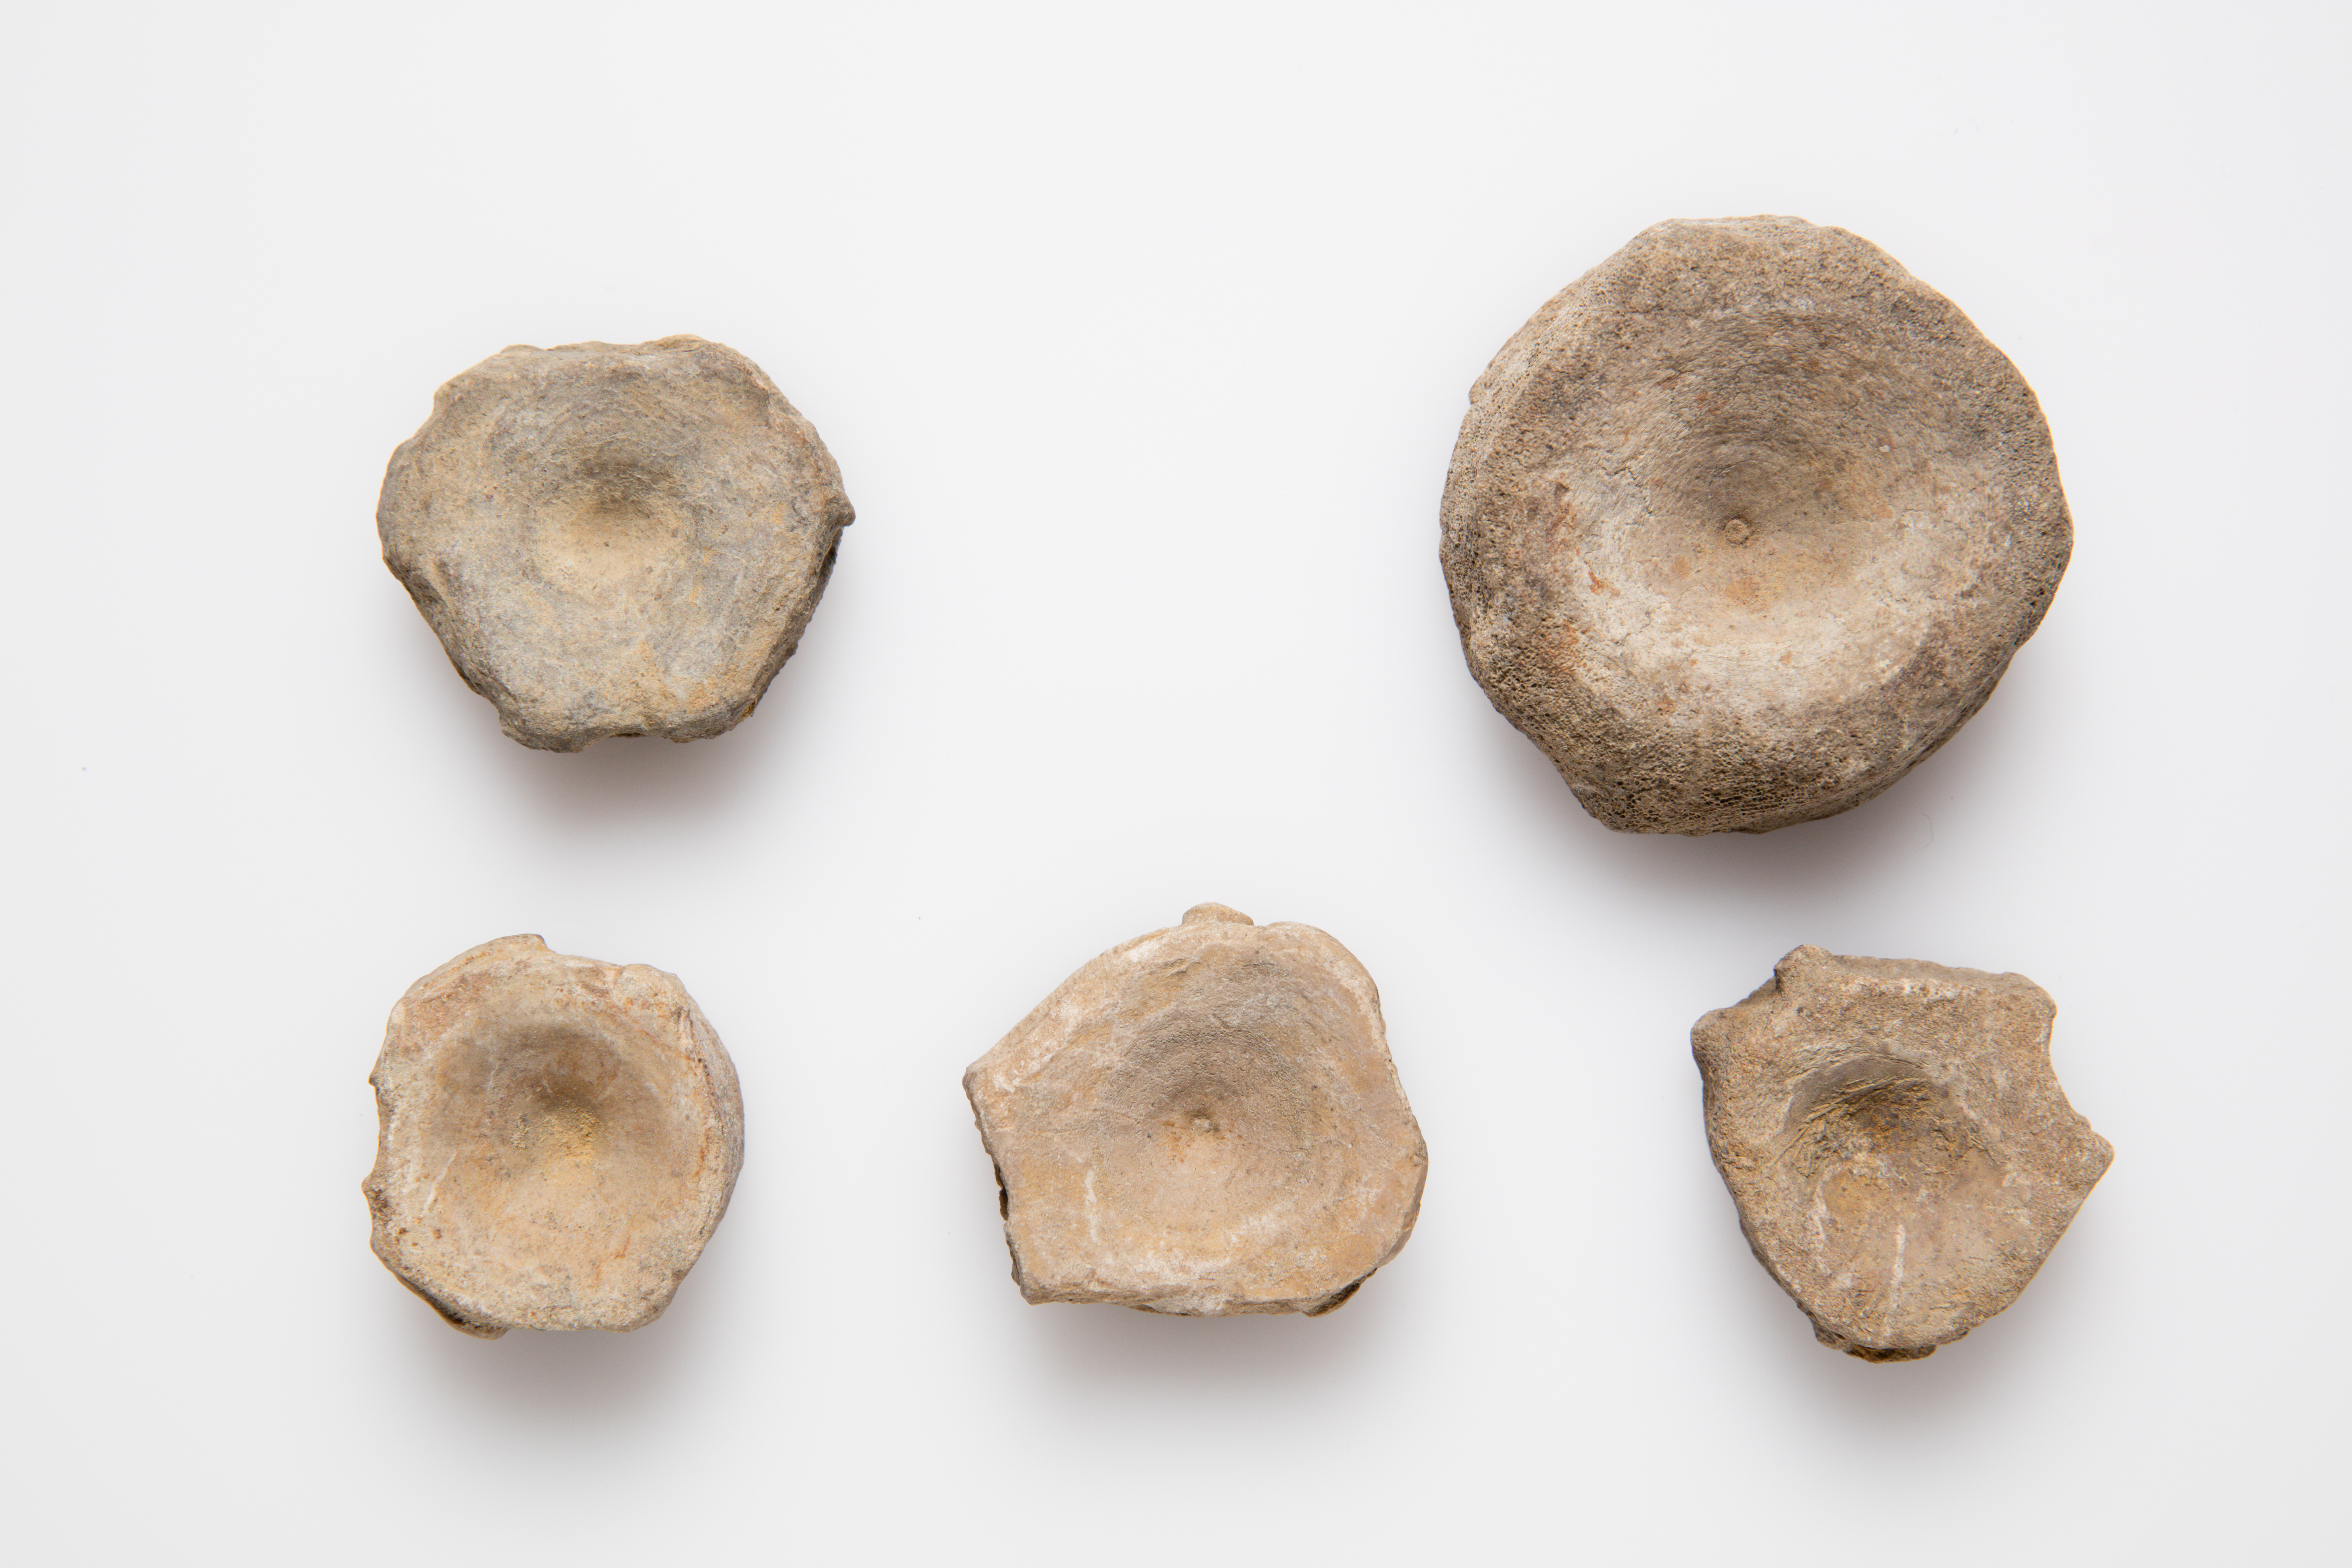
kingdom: Animalia
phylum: Chordata
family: Ichthyosauridae
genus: Ichthyosaurus
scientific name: Ichthyosaurus
